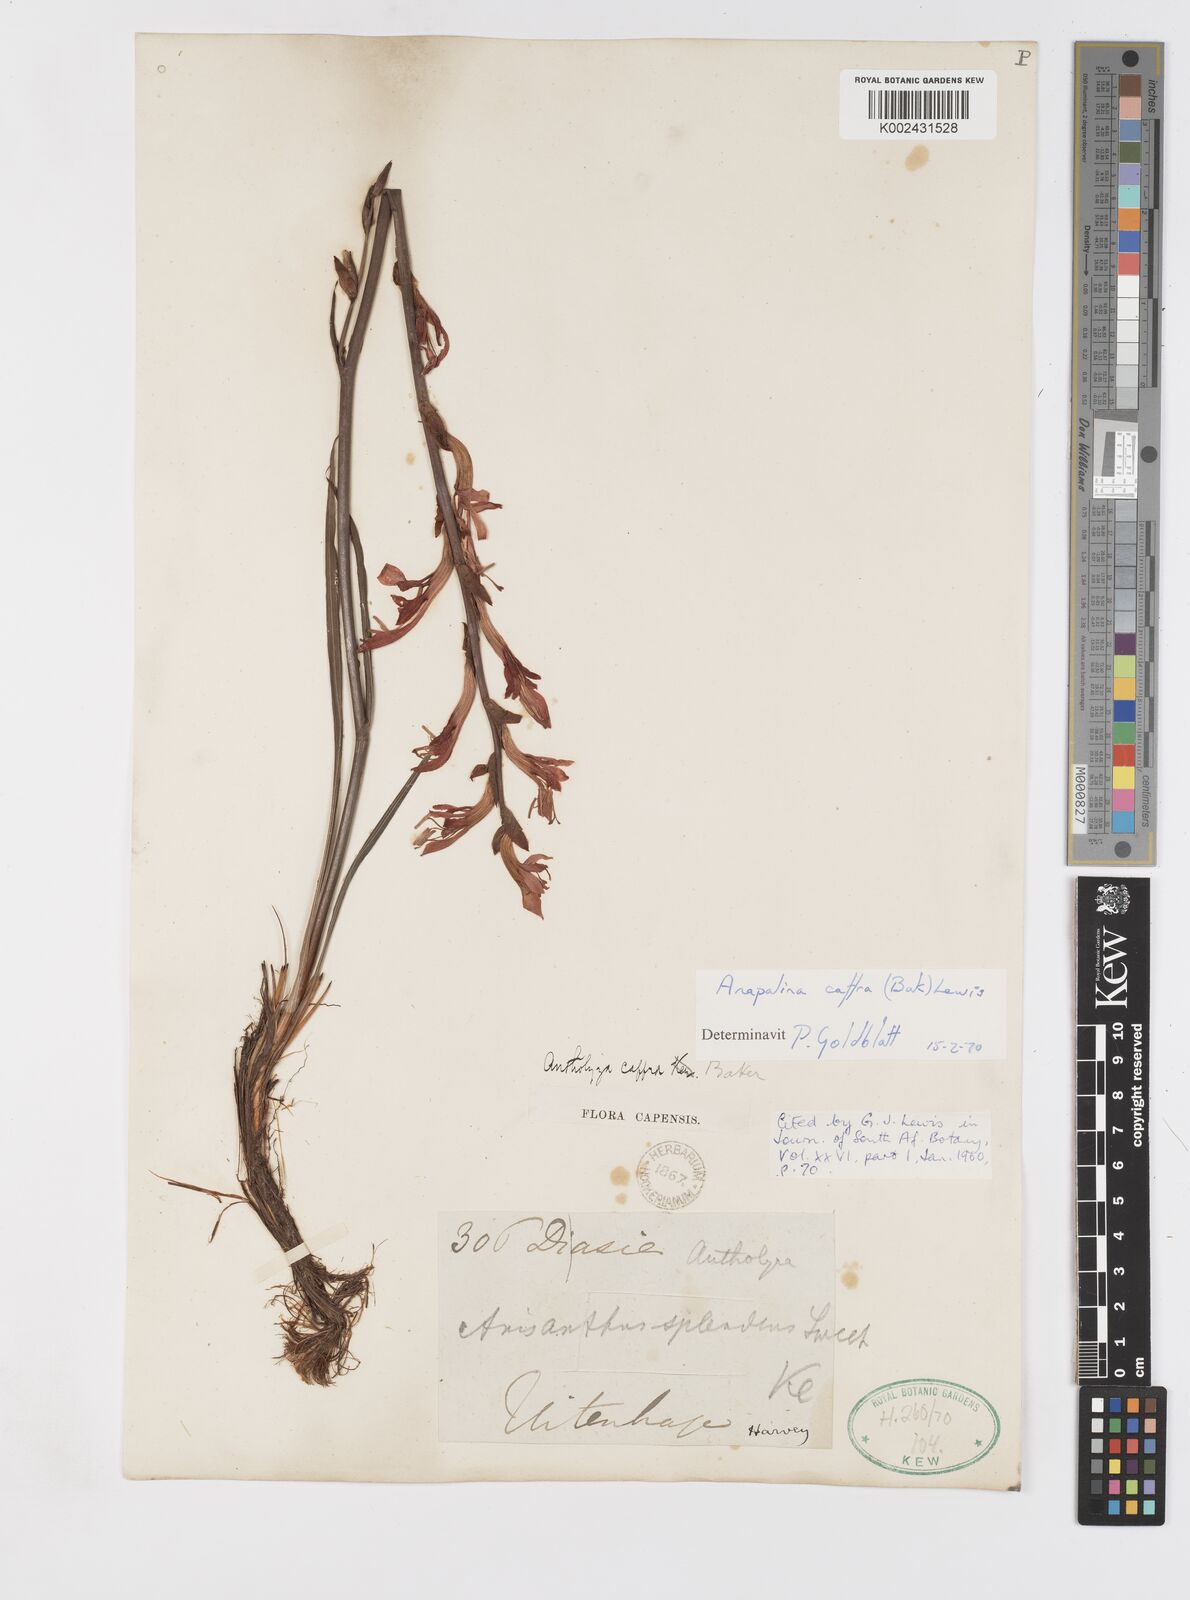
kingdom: Plantae
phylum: Tracheophyta
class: Liliopsida
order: Asparagales
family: Iridaceae
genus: Tritoniopsis
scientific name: Tritoniopsis caffra
